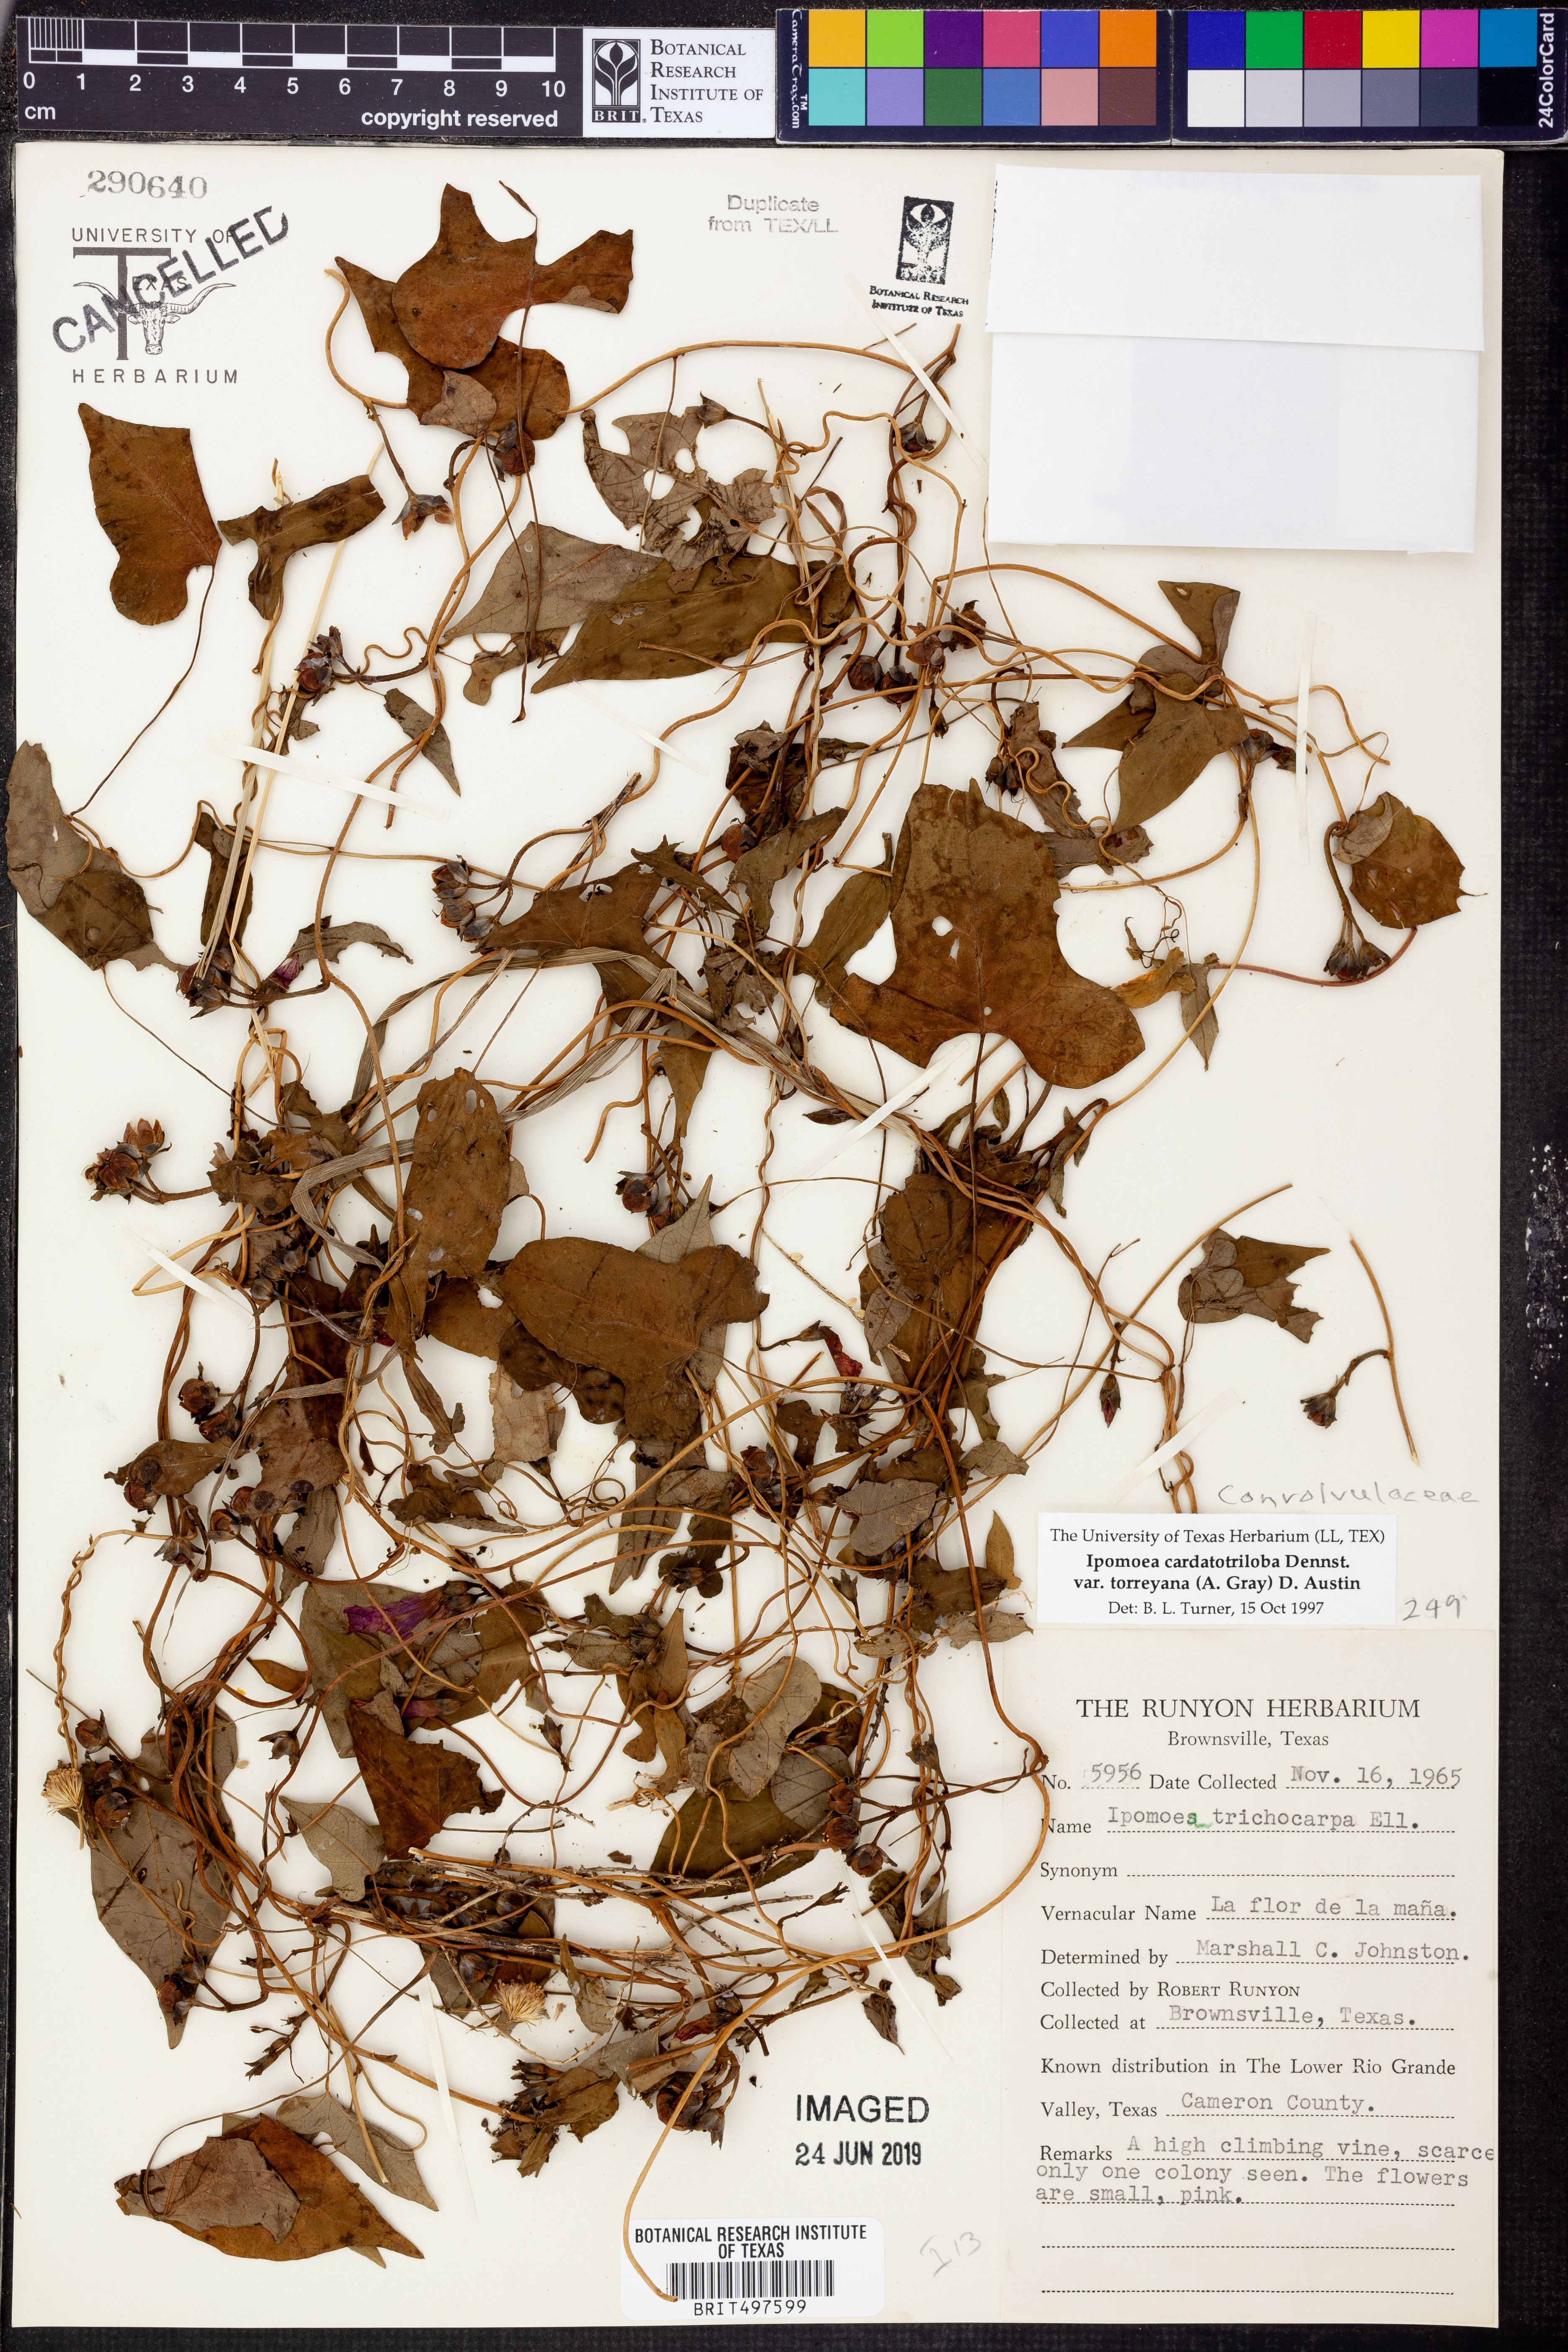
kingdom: Plantae
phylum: Tracheophyta
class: Magnoliopsida
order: Solanales
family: Convolvulaceae
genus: Ipomoea
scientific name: Ipomoea cordatotriloba
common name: Cotton morning glory
